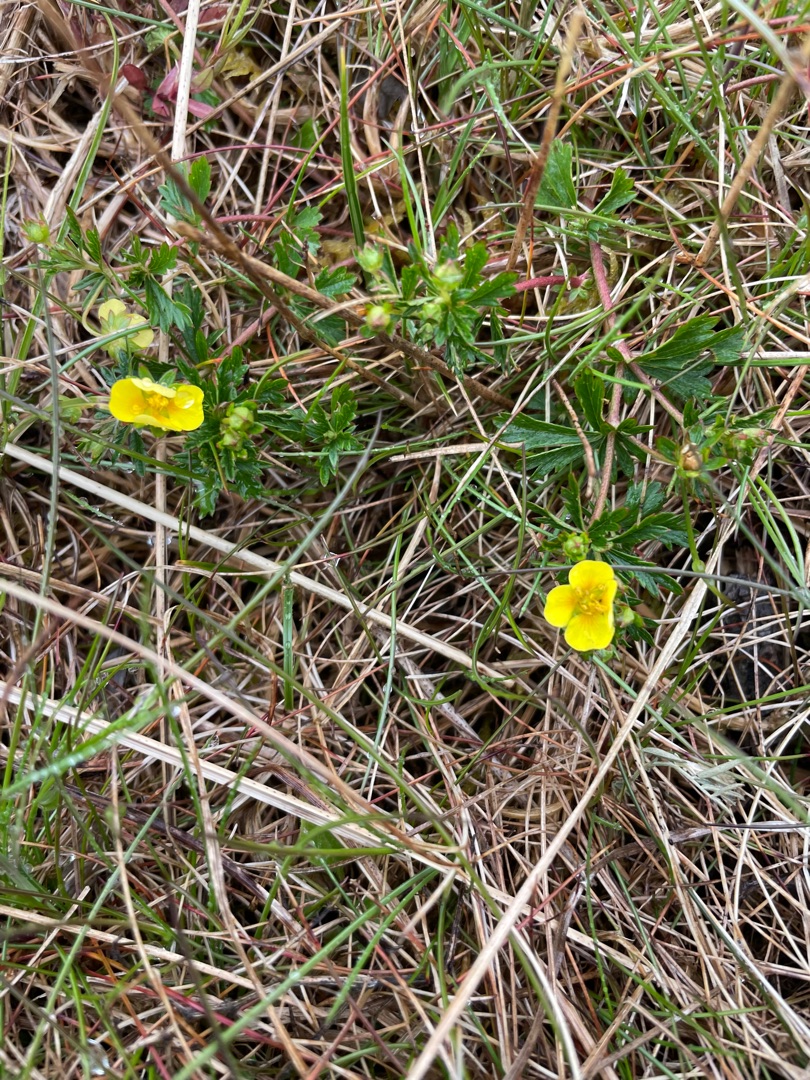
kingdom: Plantae
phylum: Tracheophyta
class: Magnoliopsida
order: Rosales
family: Rosaceae
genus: Potentilla
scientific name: Potentilla erecta
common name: Tormentil
